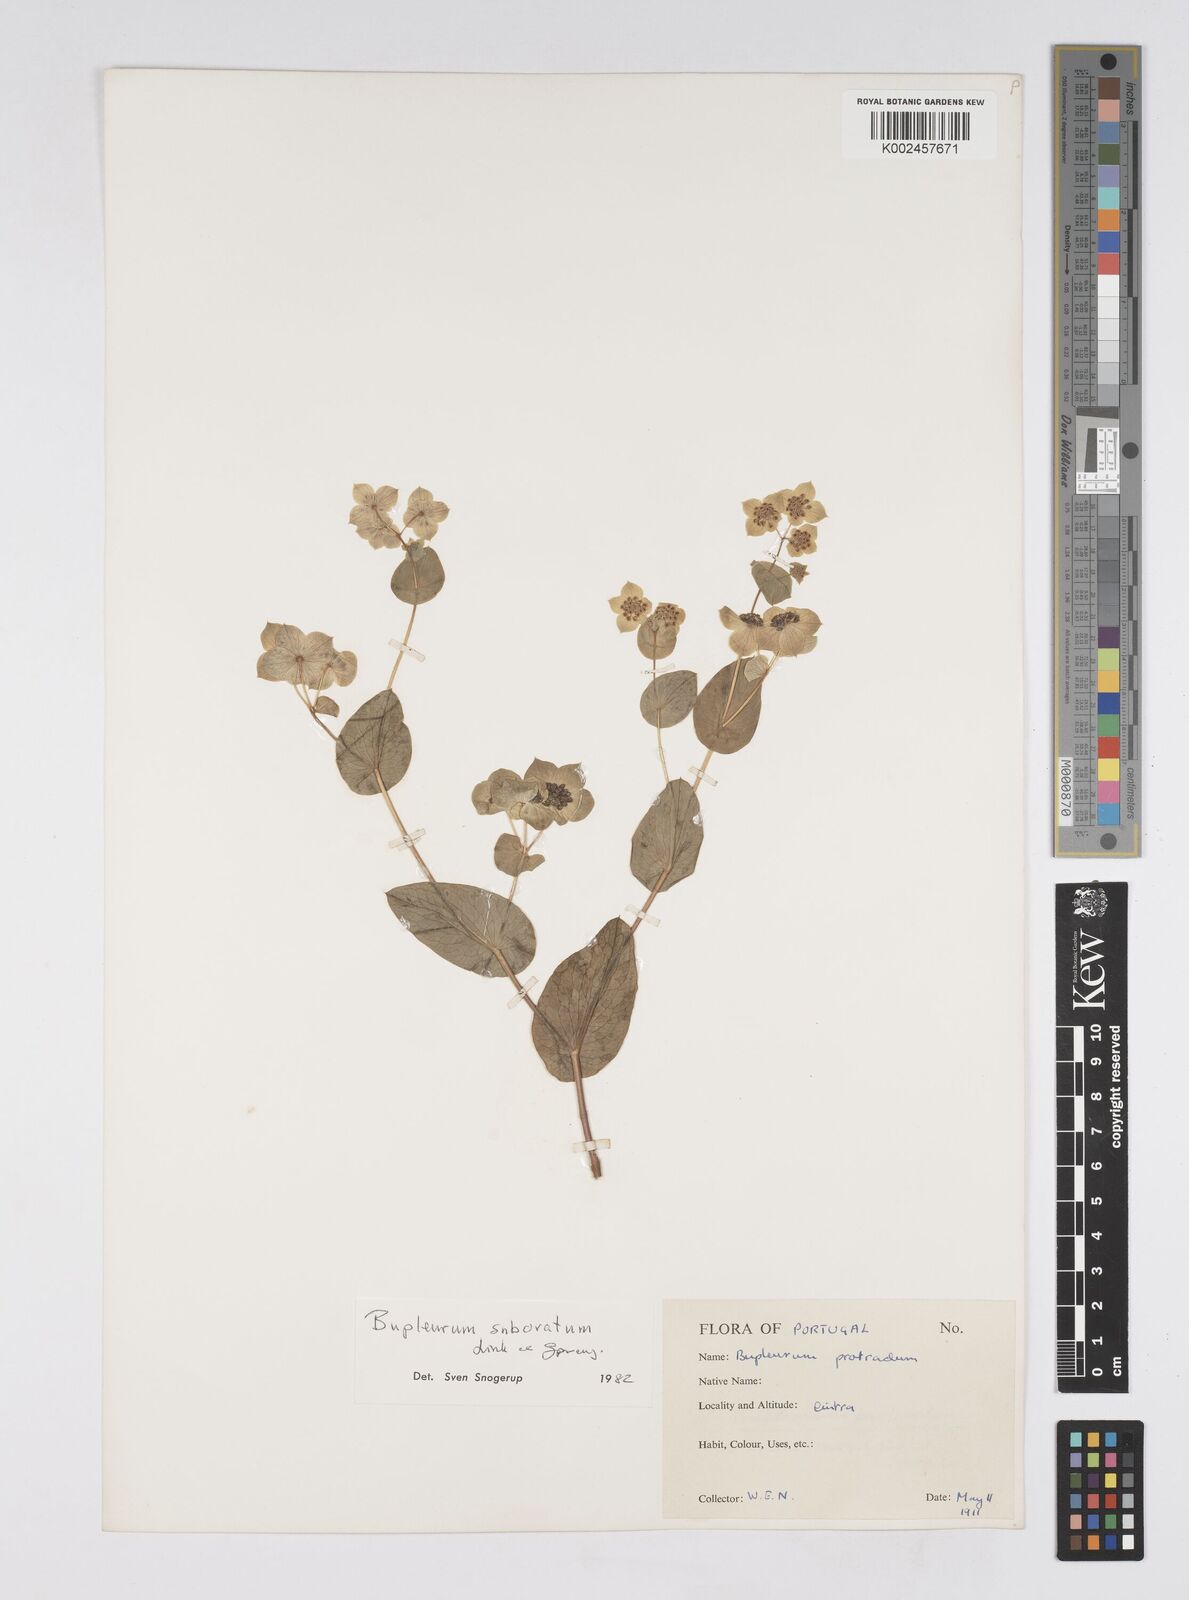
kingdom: Plantae
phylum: Tracheophyta
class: Magnoliopsida
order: Apiales
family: Apiaceae
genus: Bupleurum
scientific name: Bupleurum lancifolium
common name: False thorow-wax
